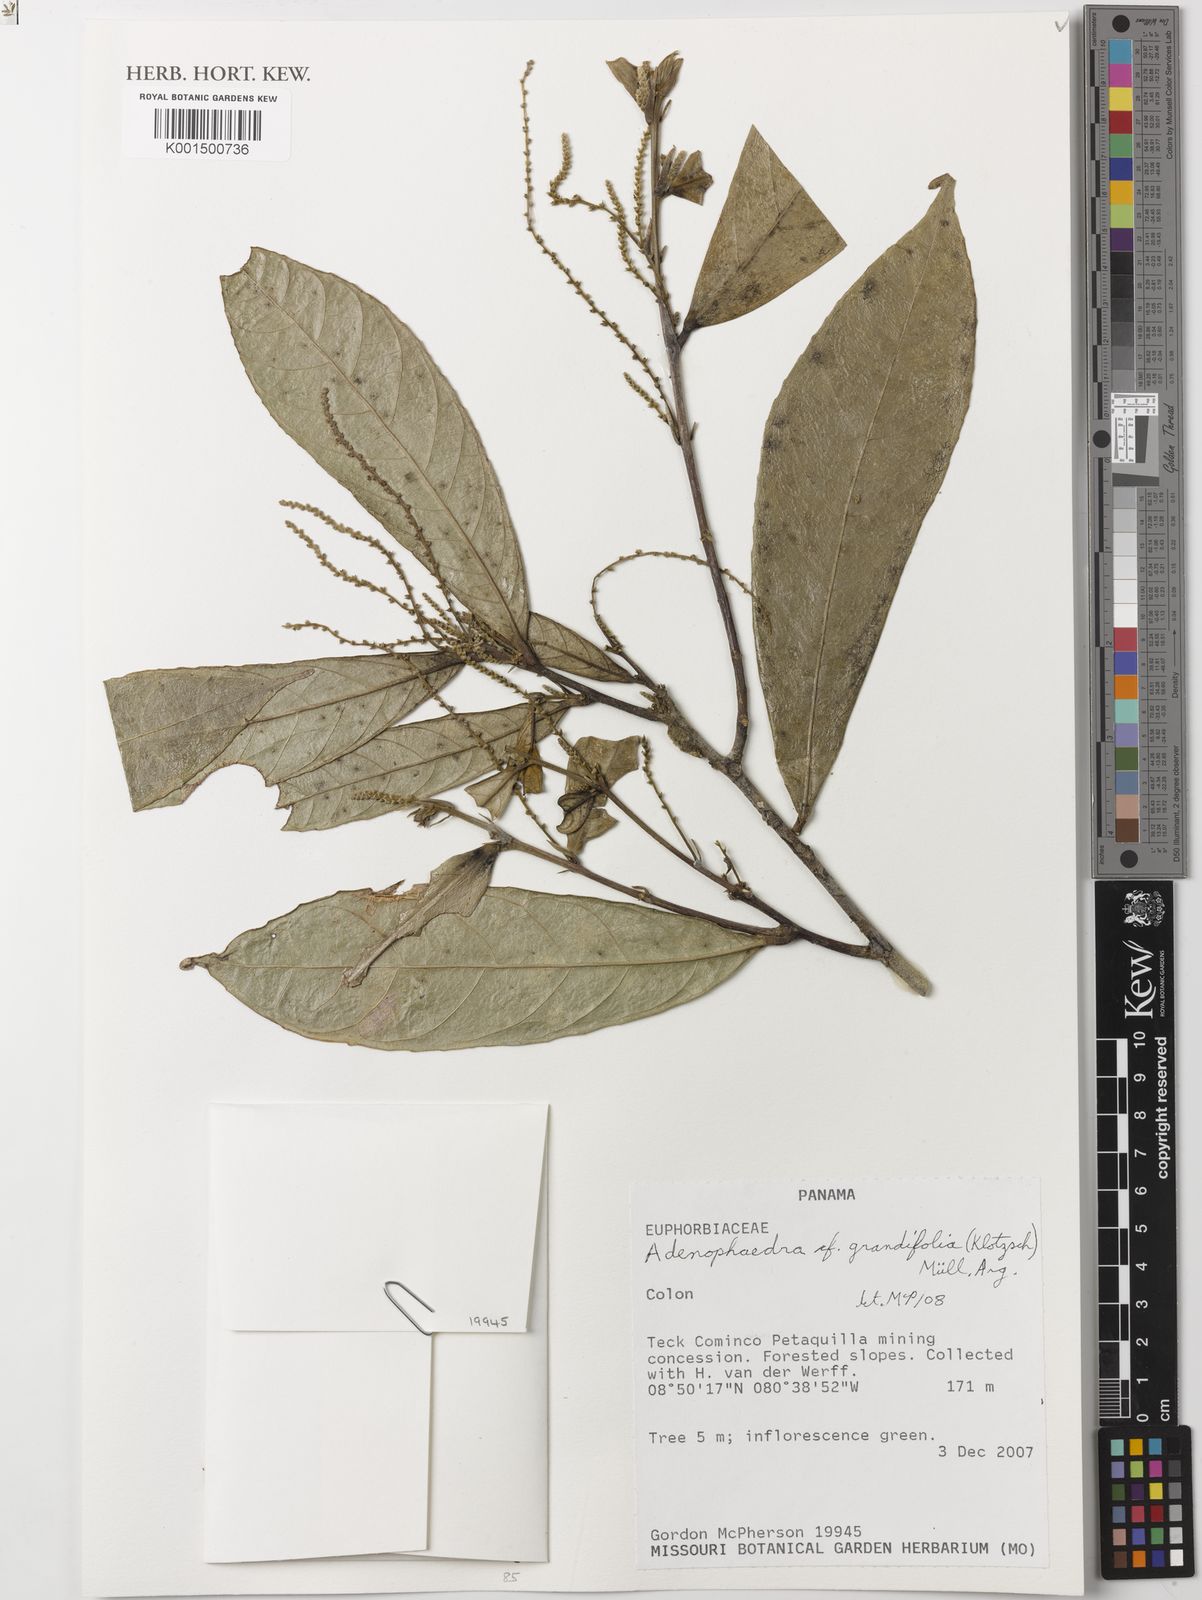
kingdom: Plantae
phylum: Tracheophyta
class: Magnoliopsida
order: Malpighiales
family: Euphorbiaceae
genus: Adenophaedra
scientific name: Adenophaedra grandifolia
